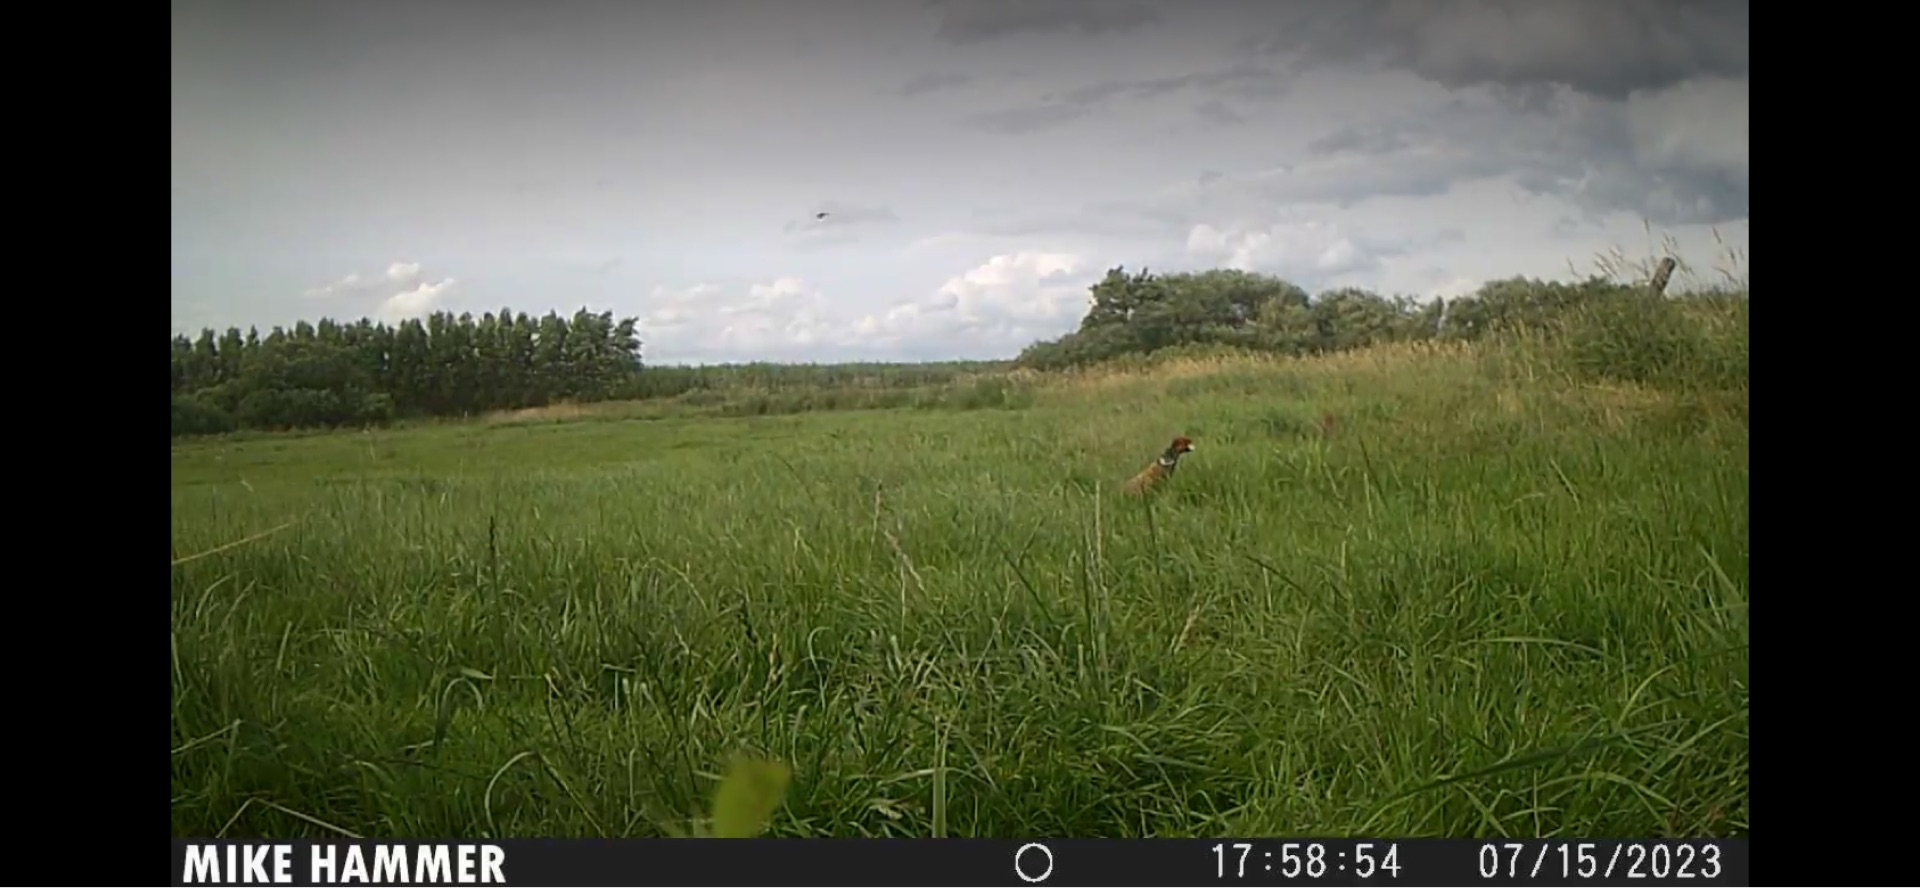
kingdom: Animalia
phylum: Chordata
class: Aves
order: Galliformes
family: Phasianidae
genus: Phasianus
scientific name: Phasianus colchicus
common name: Fasan
